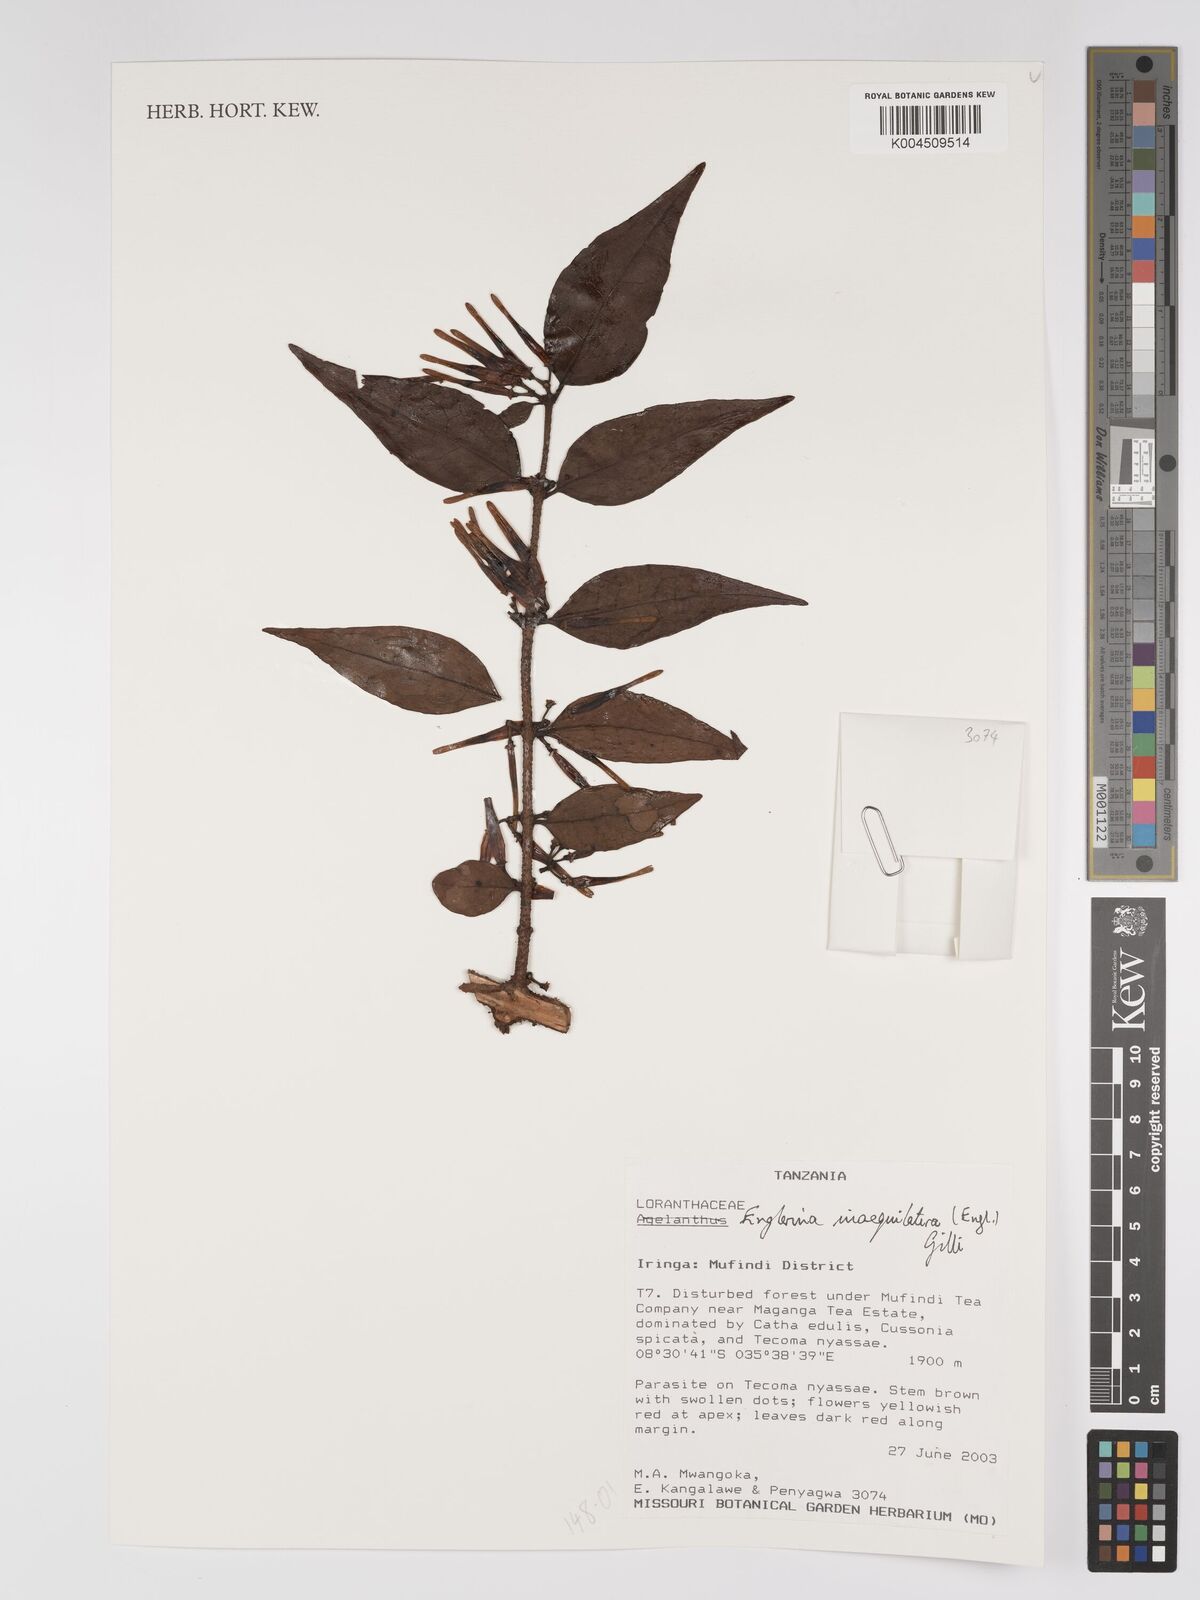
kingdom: Plantae
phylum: Tracheophyta
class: Magnoliopsida
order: Santalales
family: Loranthaceae
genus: Englerina
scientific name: Englerina inaequilatera
